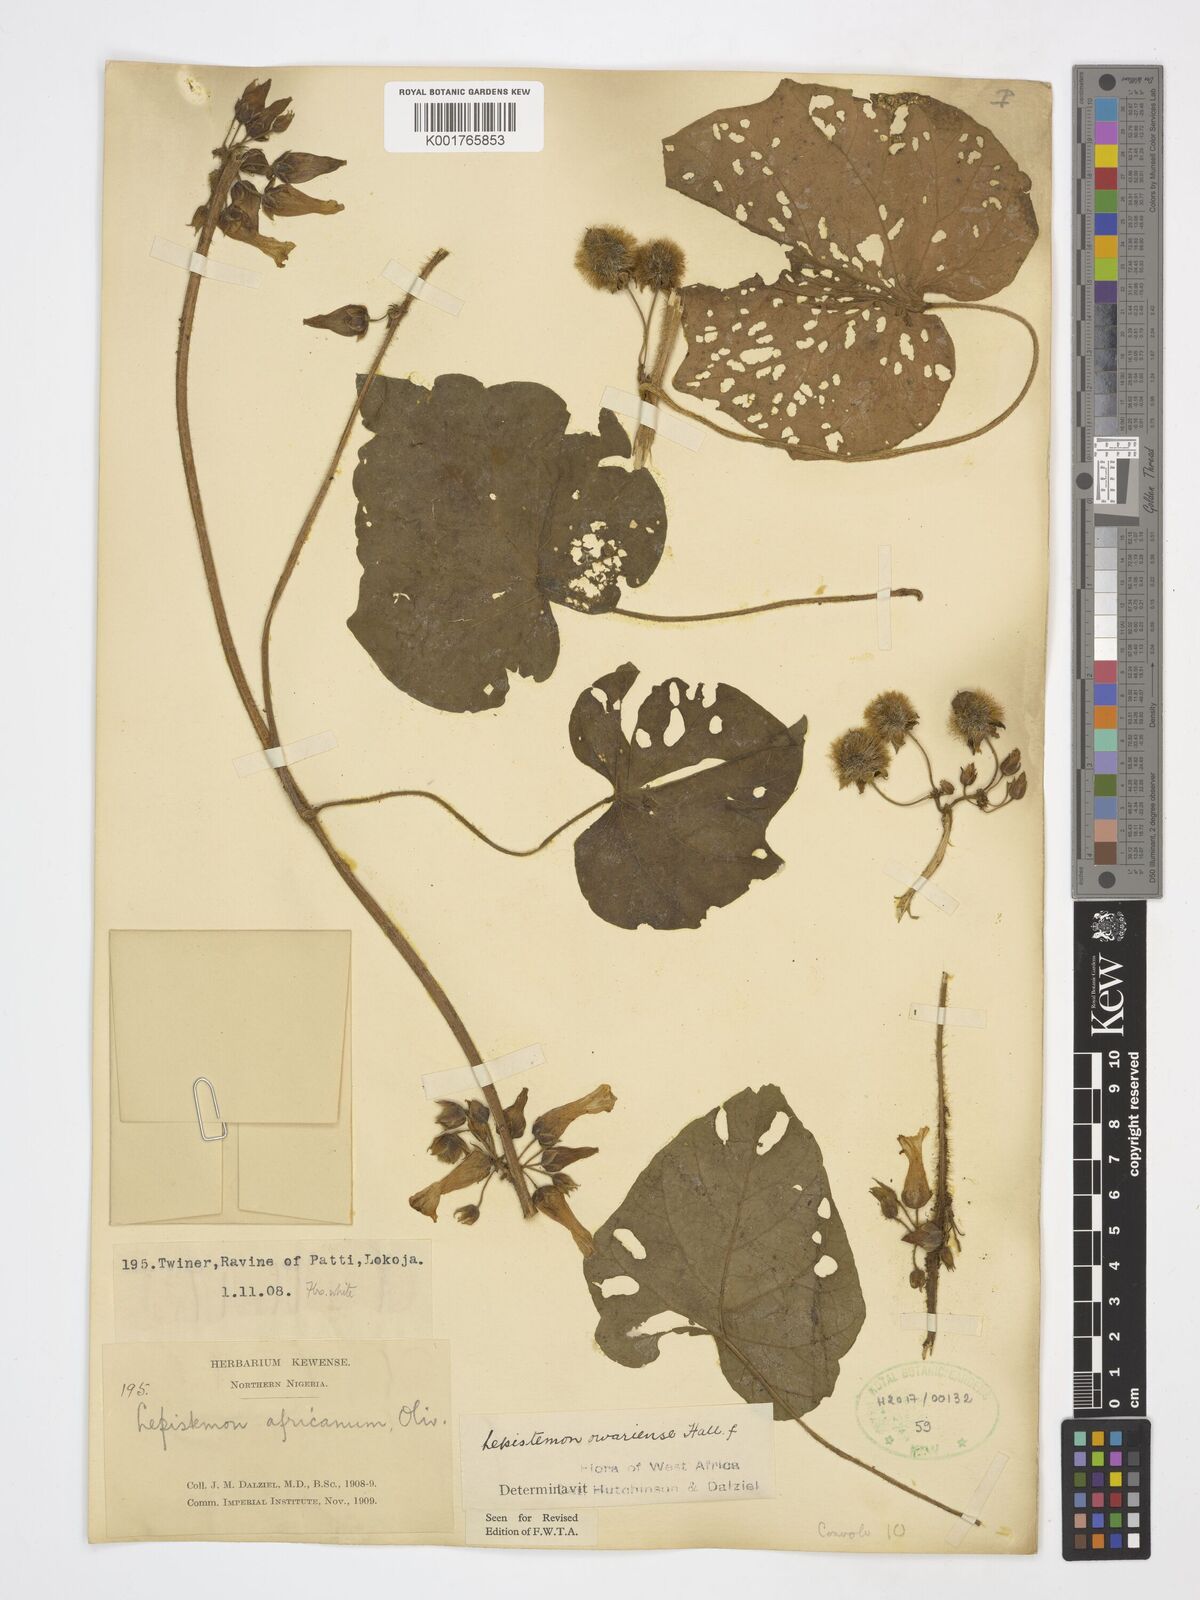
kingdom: Plantae
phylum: Tracheophyta
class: Magnoliopsida
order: Solanales
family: Convolvulaceae
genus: Lepistemon
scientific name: Lepistemon owariensis
